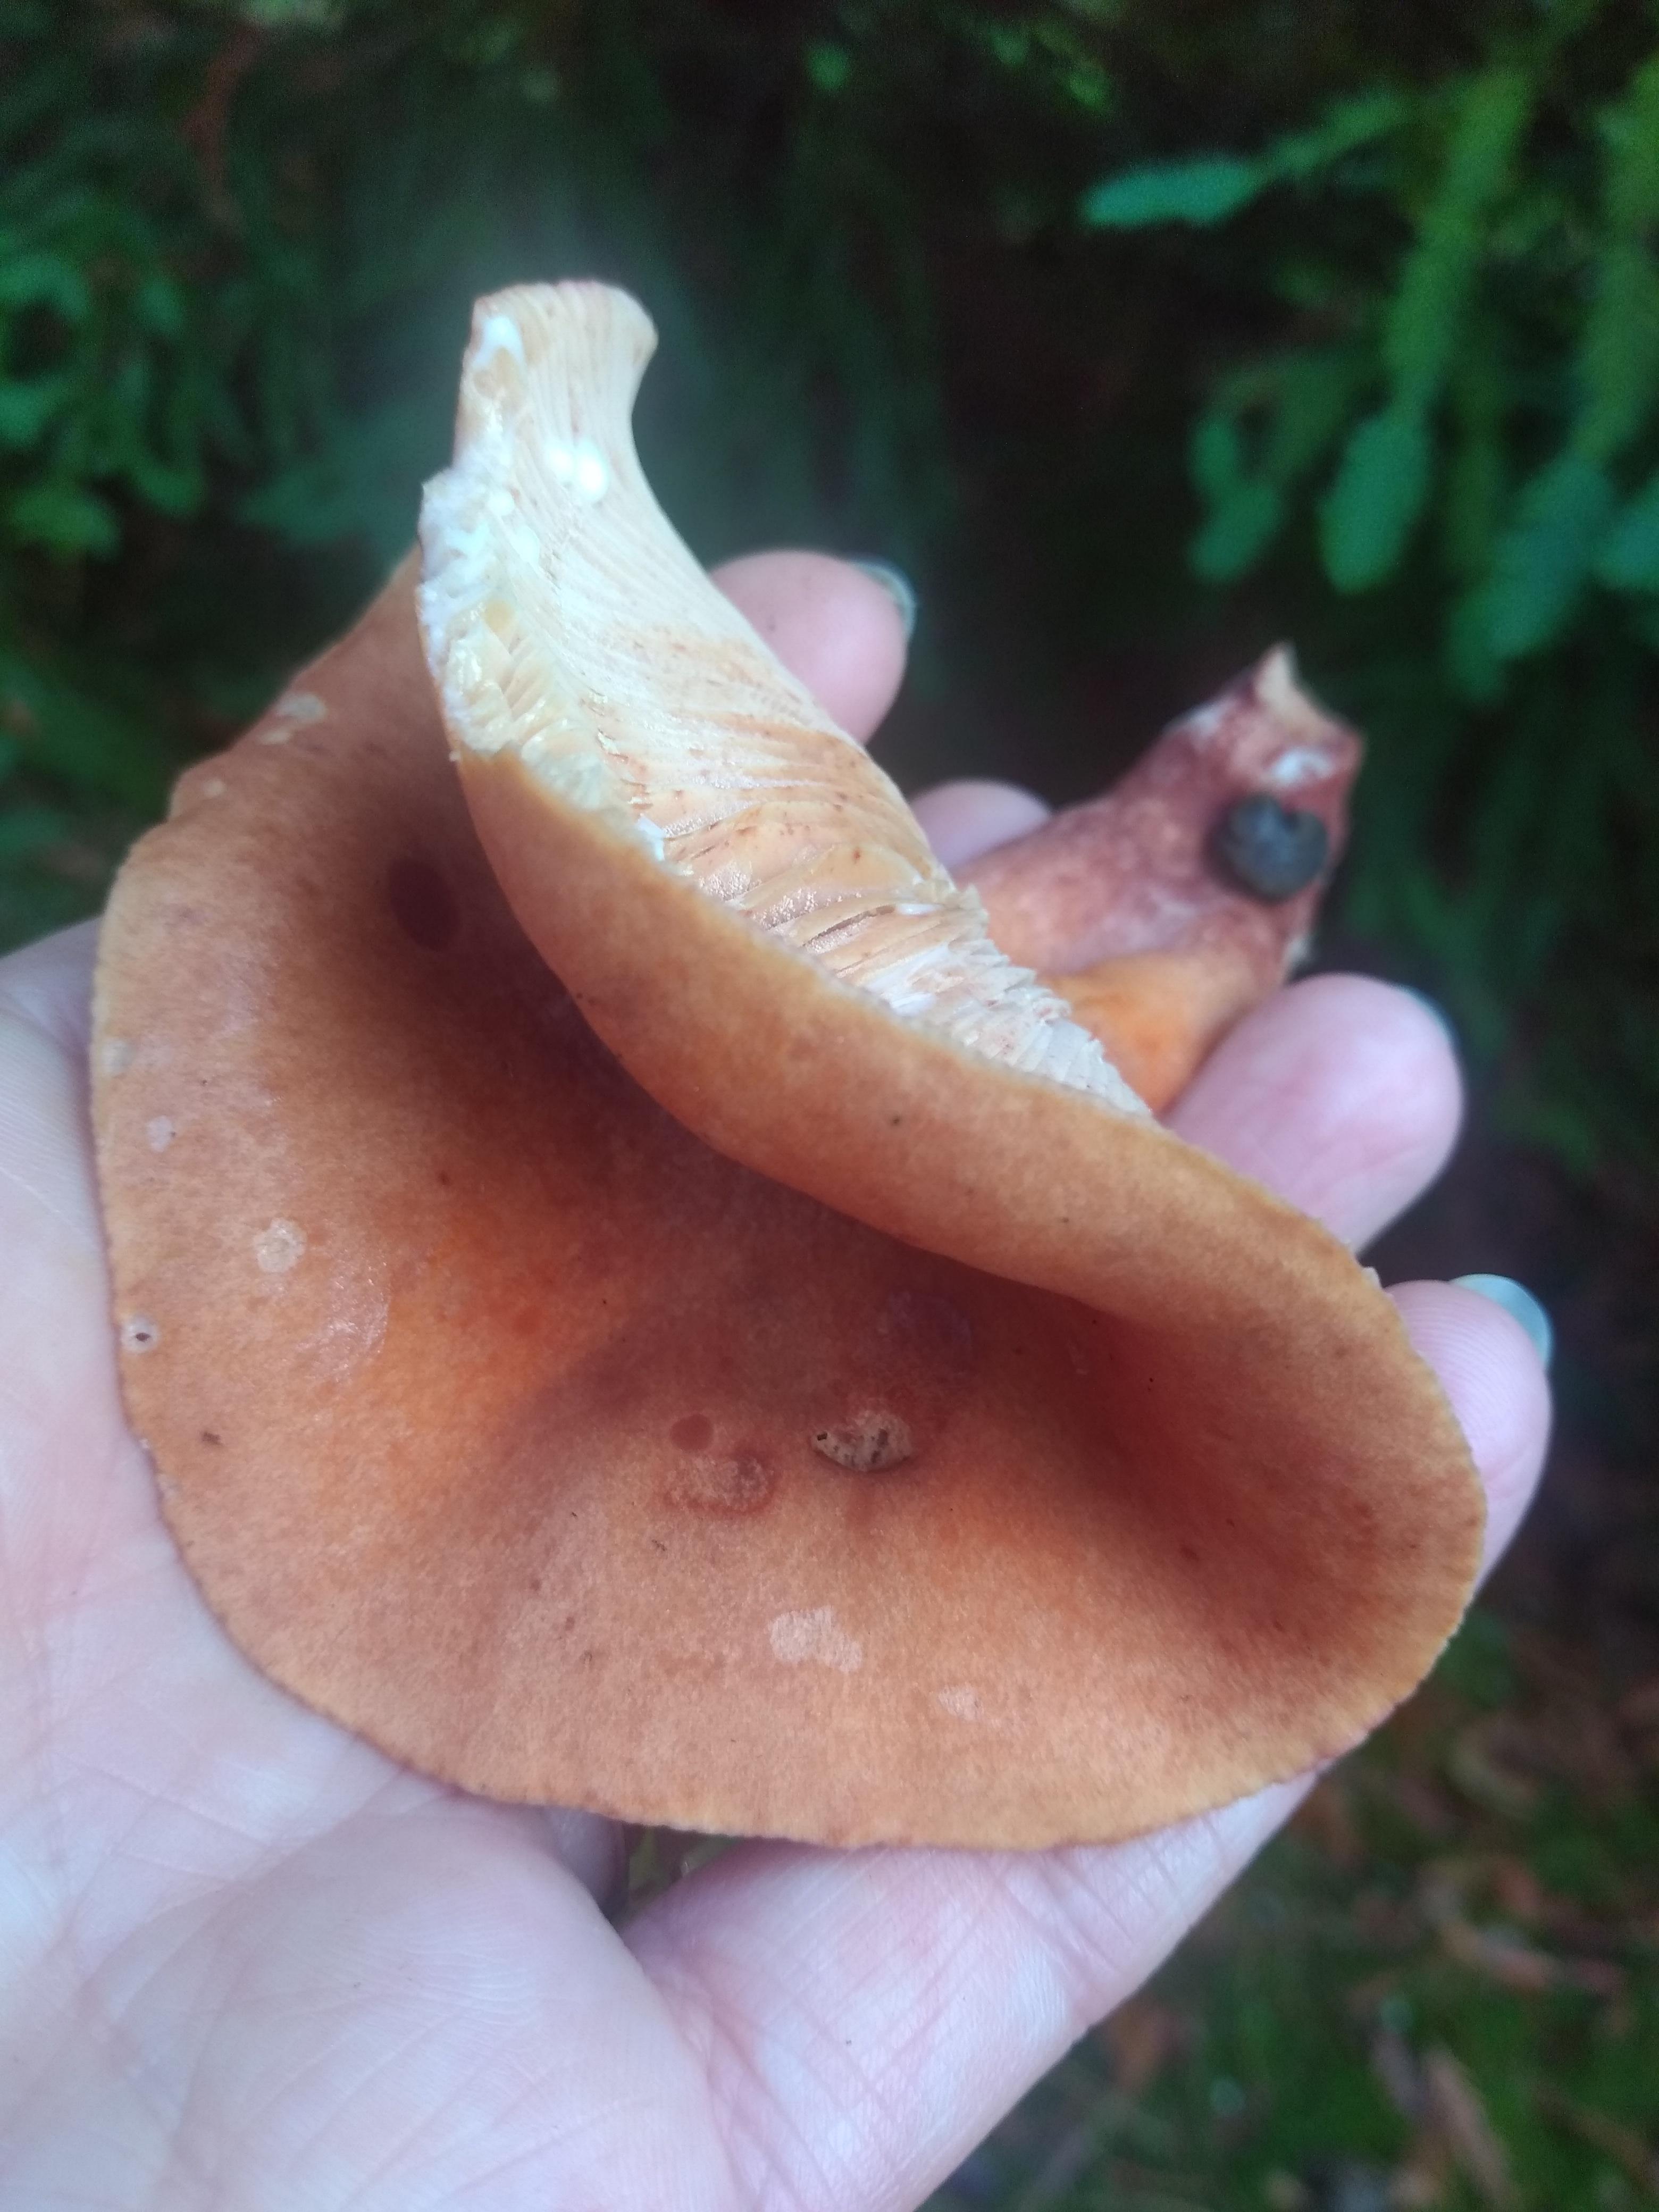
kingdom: Fungi
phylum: Basidiomycota
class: Agaricomycetes
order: Russulales
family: Russulaceae
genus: Lactarius
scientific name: Lactarius
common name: mælkehat
